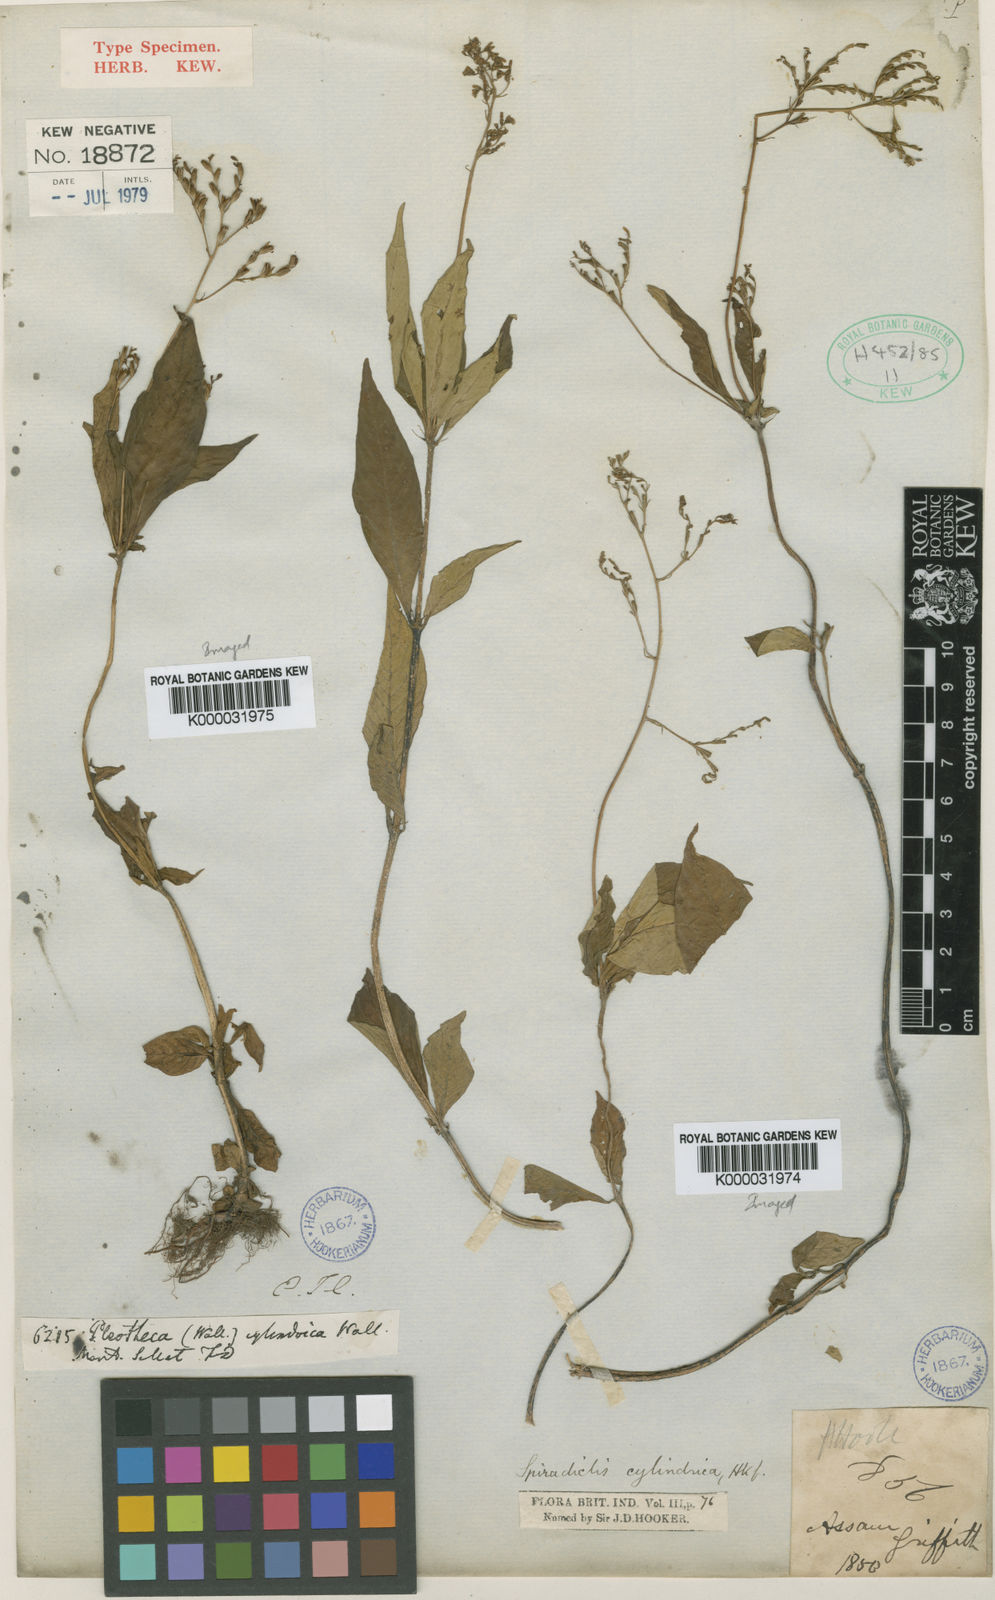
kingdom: Plantae
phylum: Tracheophyta
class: Magnoliopsida
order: Gentianales
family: Rubiaceae
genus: Ophiorrhiza
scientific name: Ophiorrhiza cylindrica
